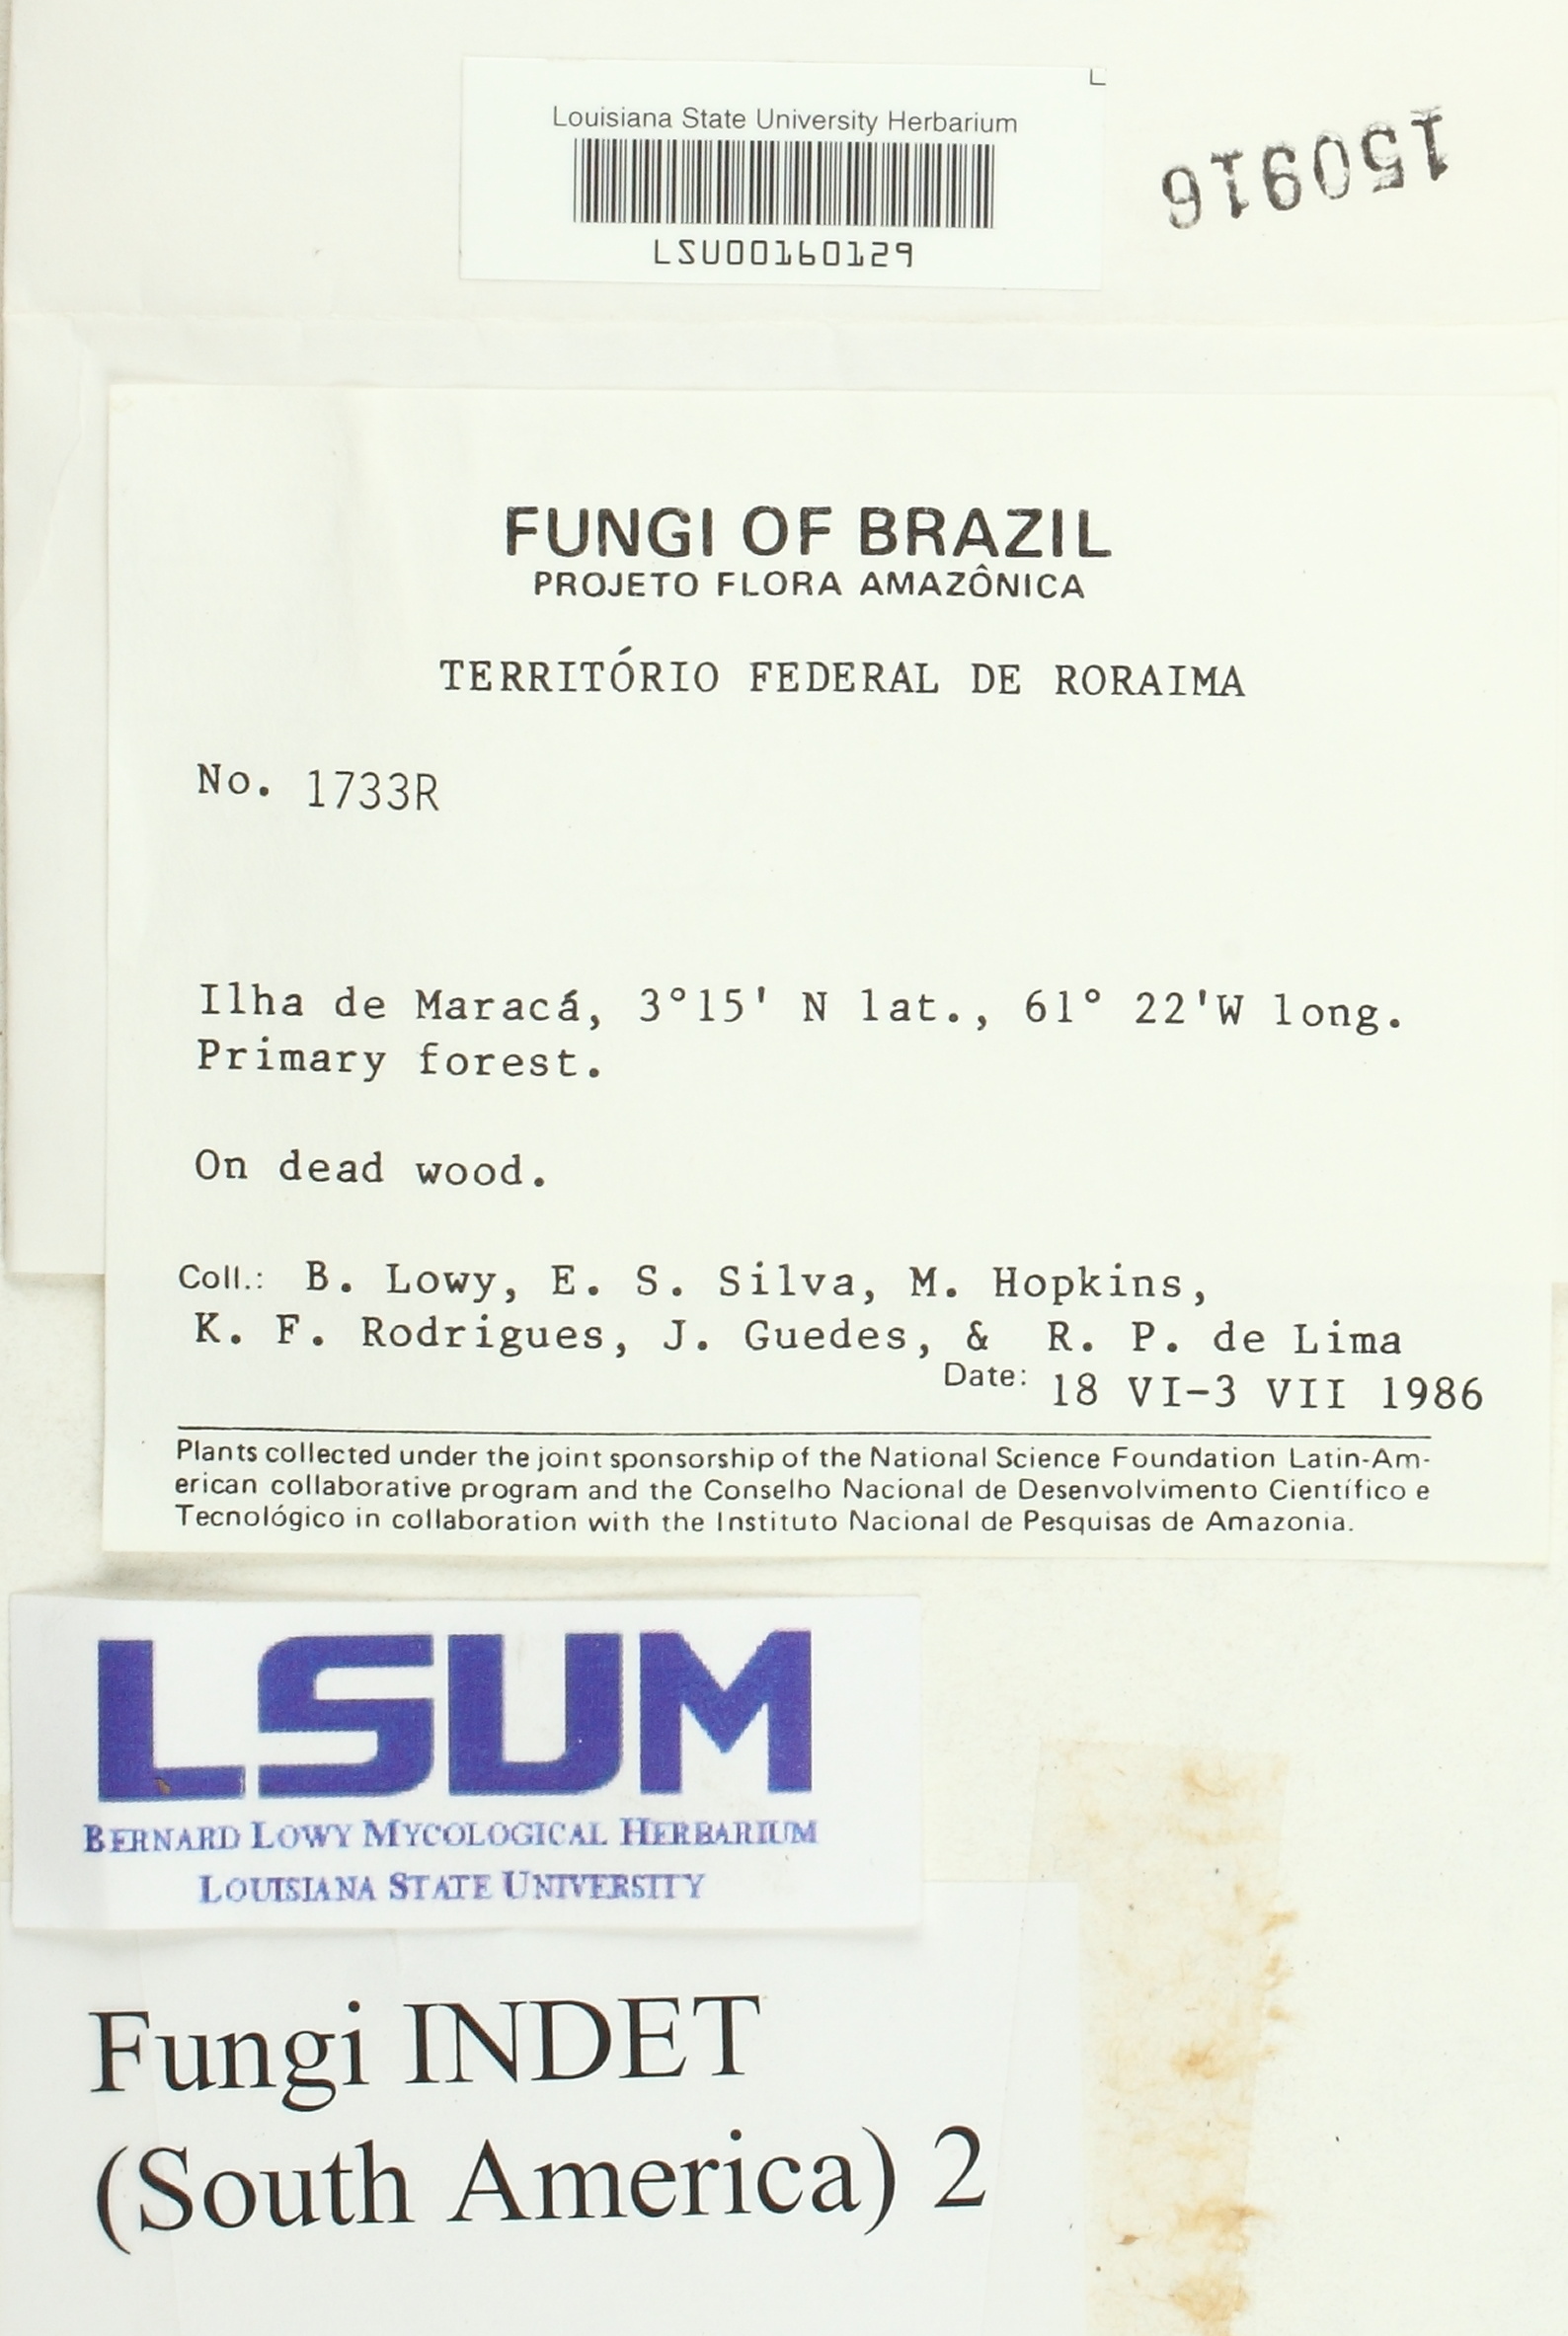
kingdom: Fungi
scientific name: Fungi
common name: Fungi
